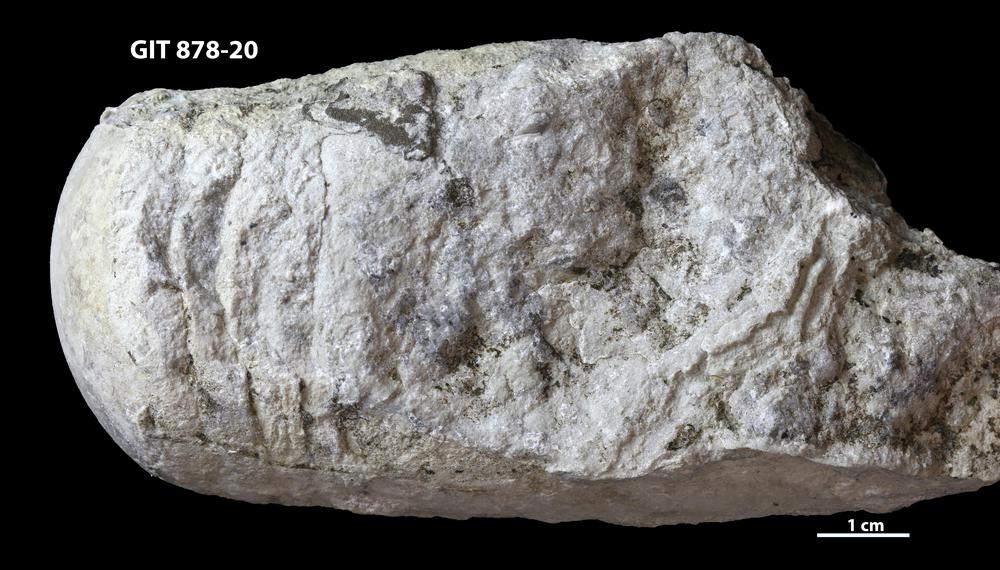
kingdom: Animalia
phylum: Mollusca
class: Cephalopoda
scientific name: Cephalopoda
